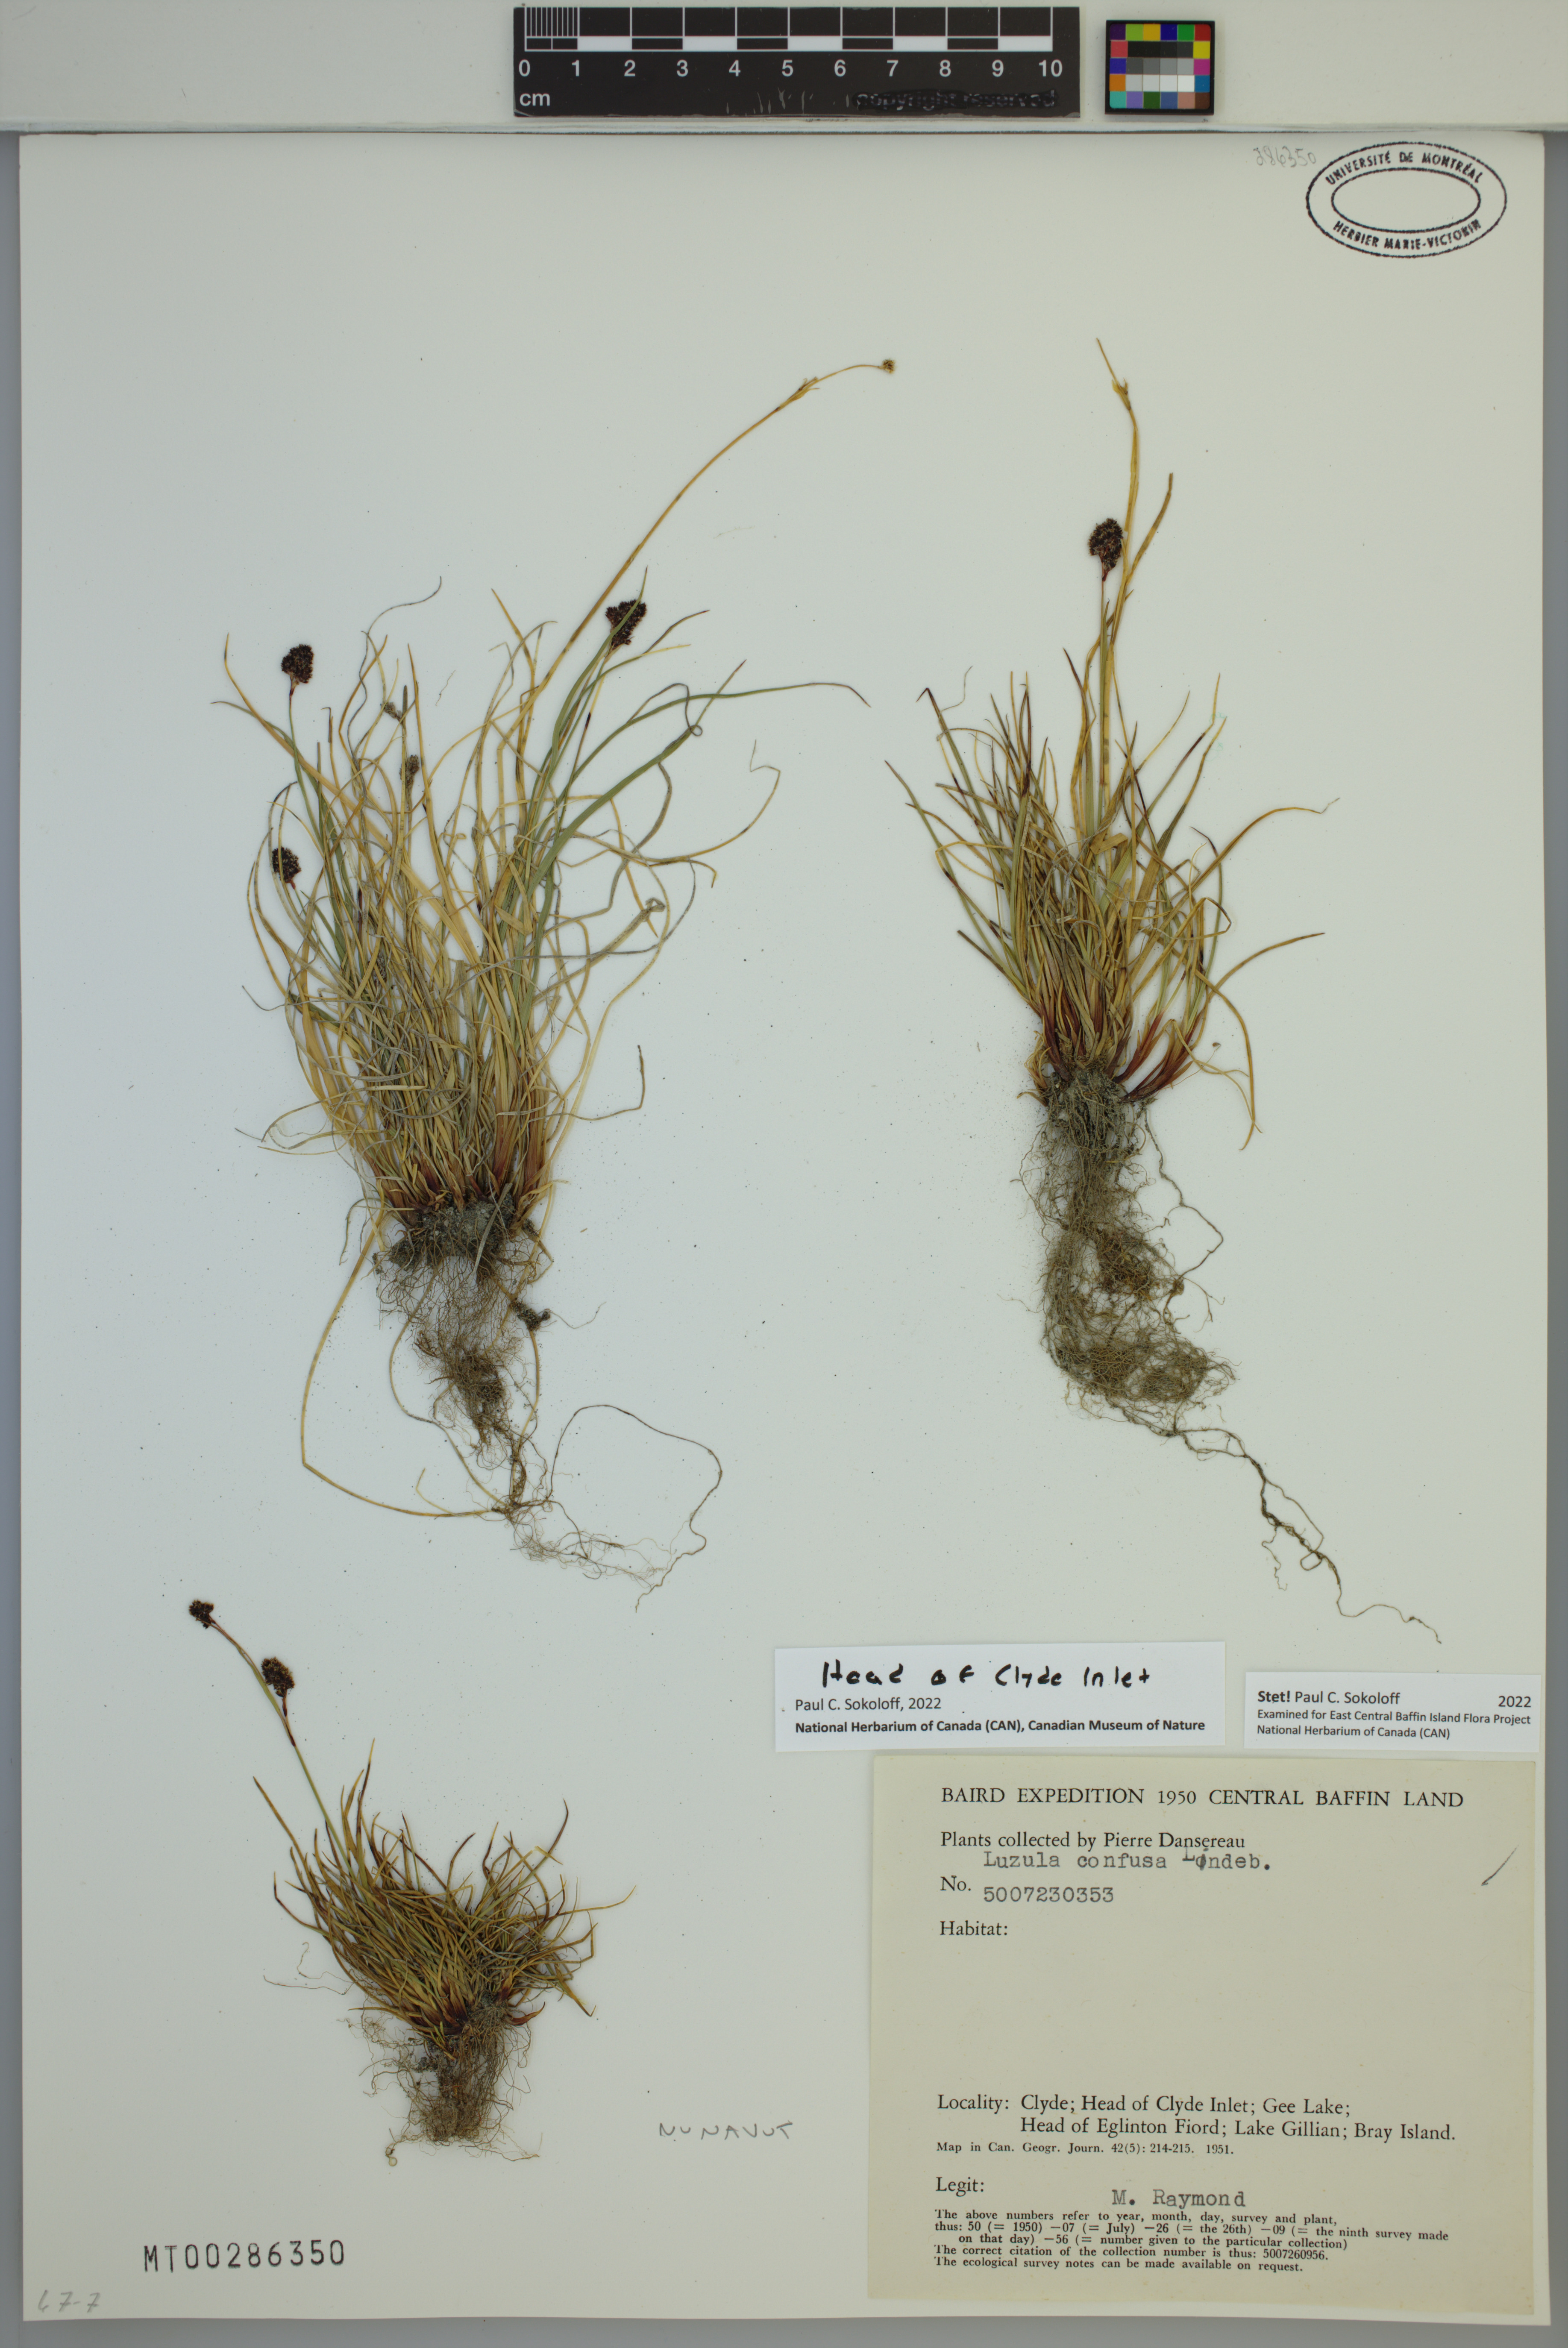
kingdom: Plantae
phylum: Tracheophyta
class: Liliopsida
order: Poales
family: Juncaceae
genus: Luzula
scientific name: Luzula confusa
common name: Northern wood rush
